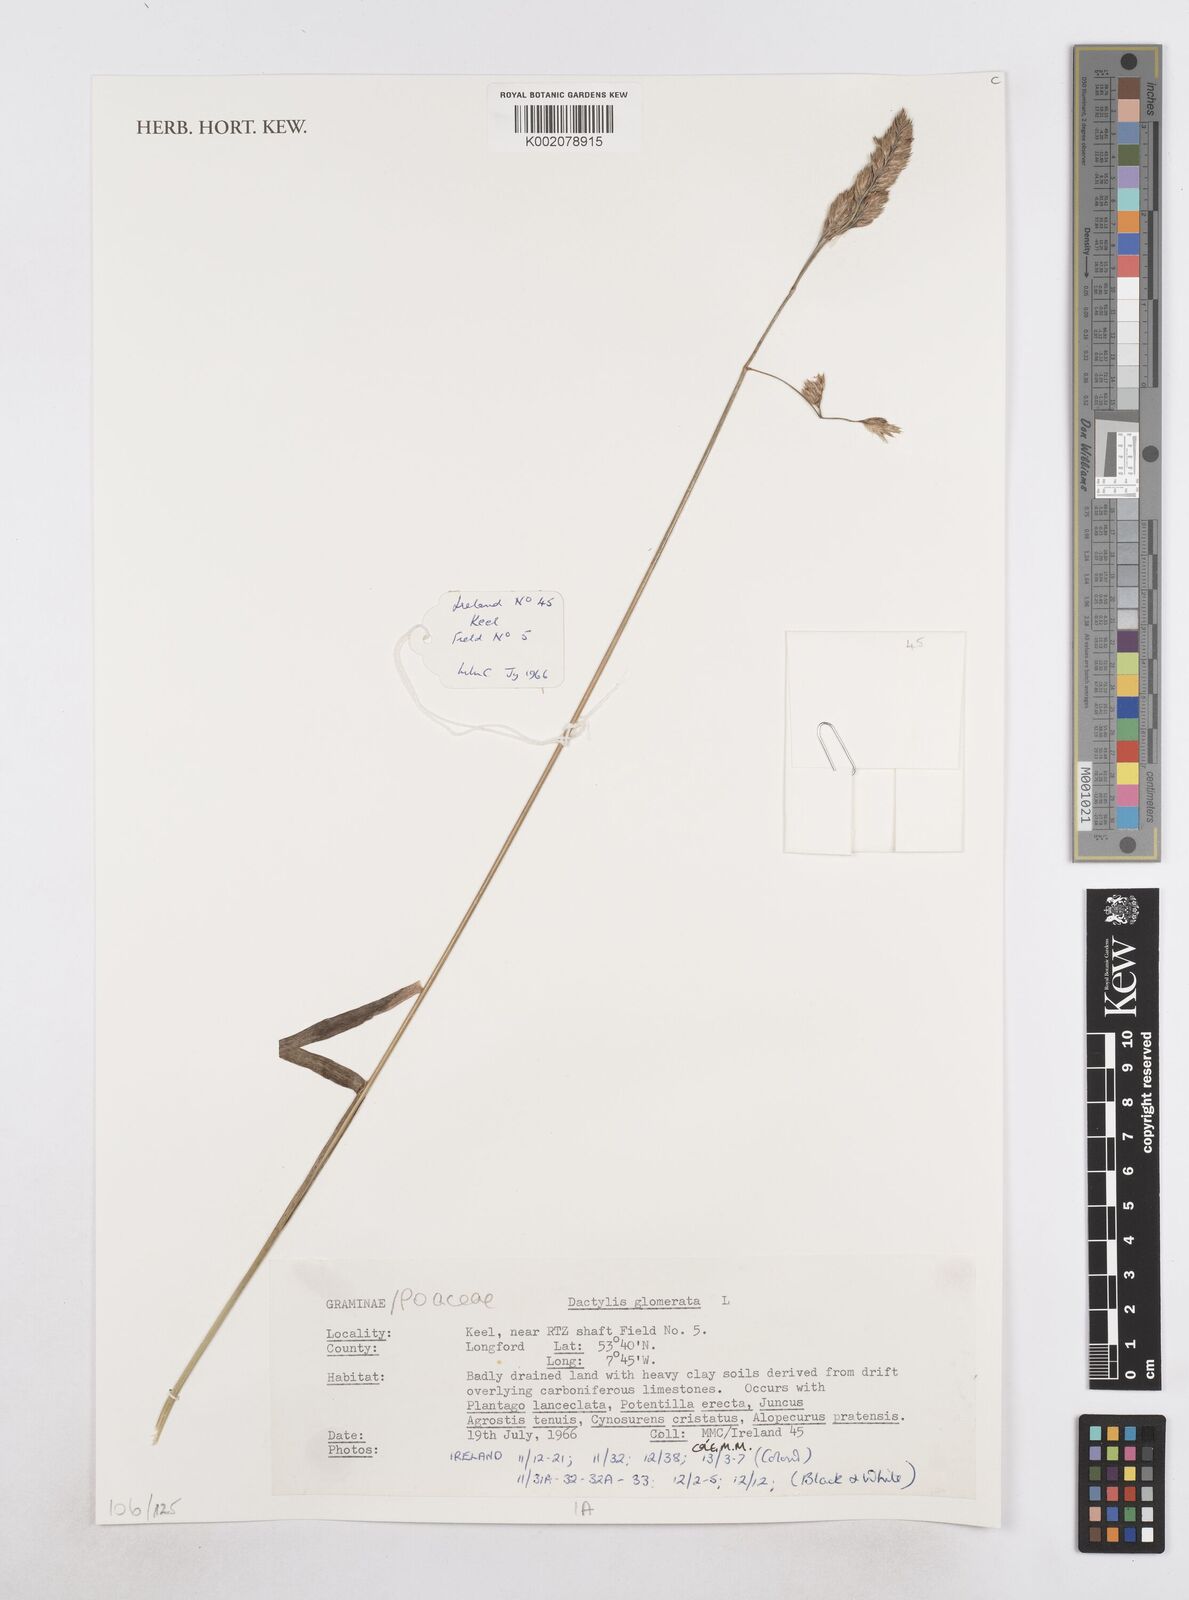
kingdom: Plantae
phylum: Tracheophyta
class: Liliopsida
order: Poales
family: Poaceae
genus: Dactylis
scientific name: Dactylis glomerata
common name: Orchardgrass
